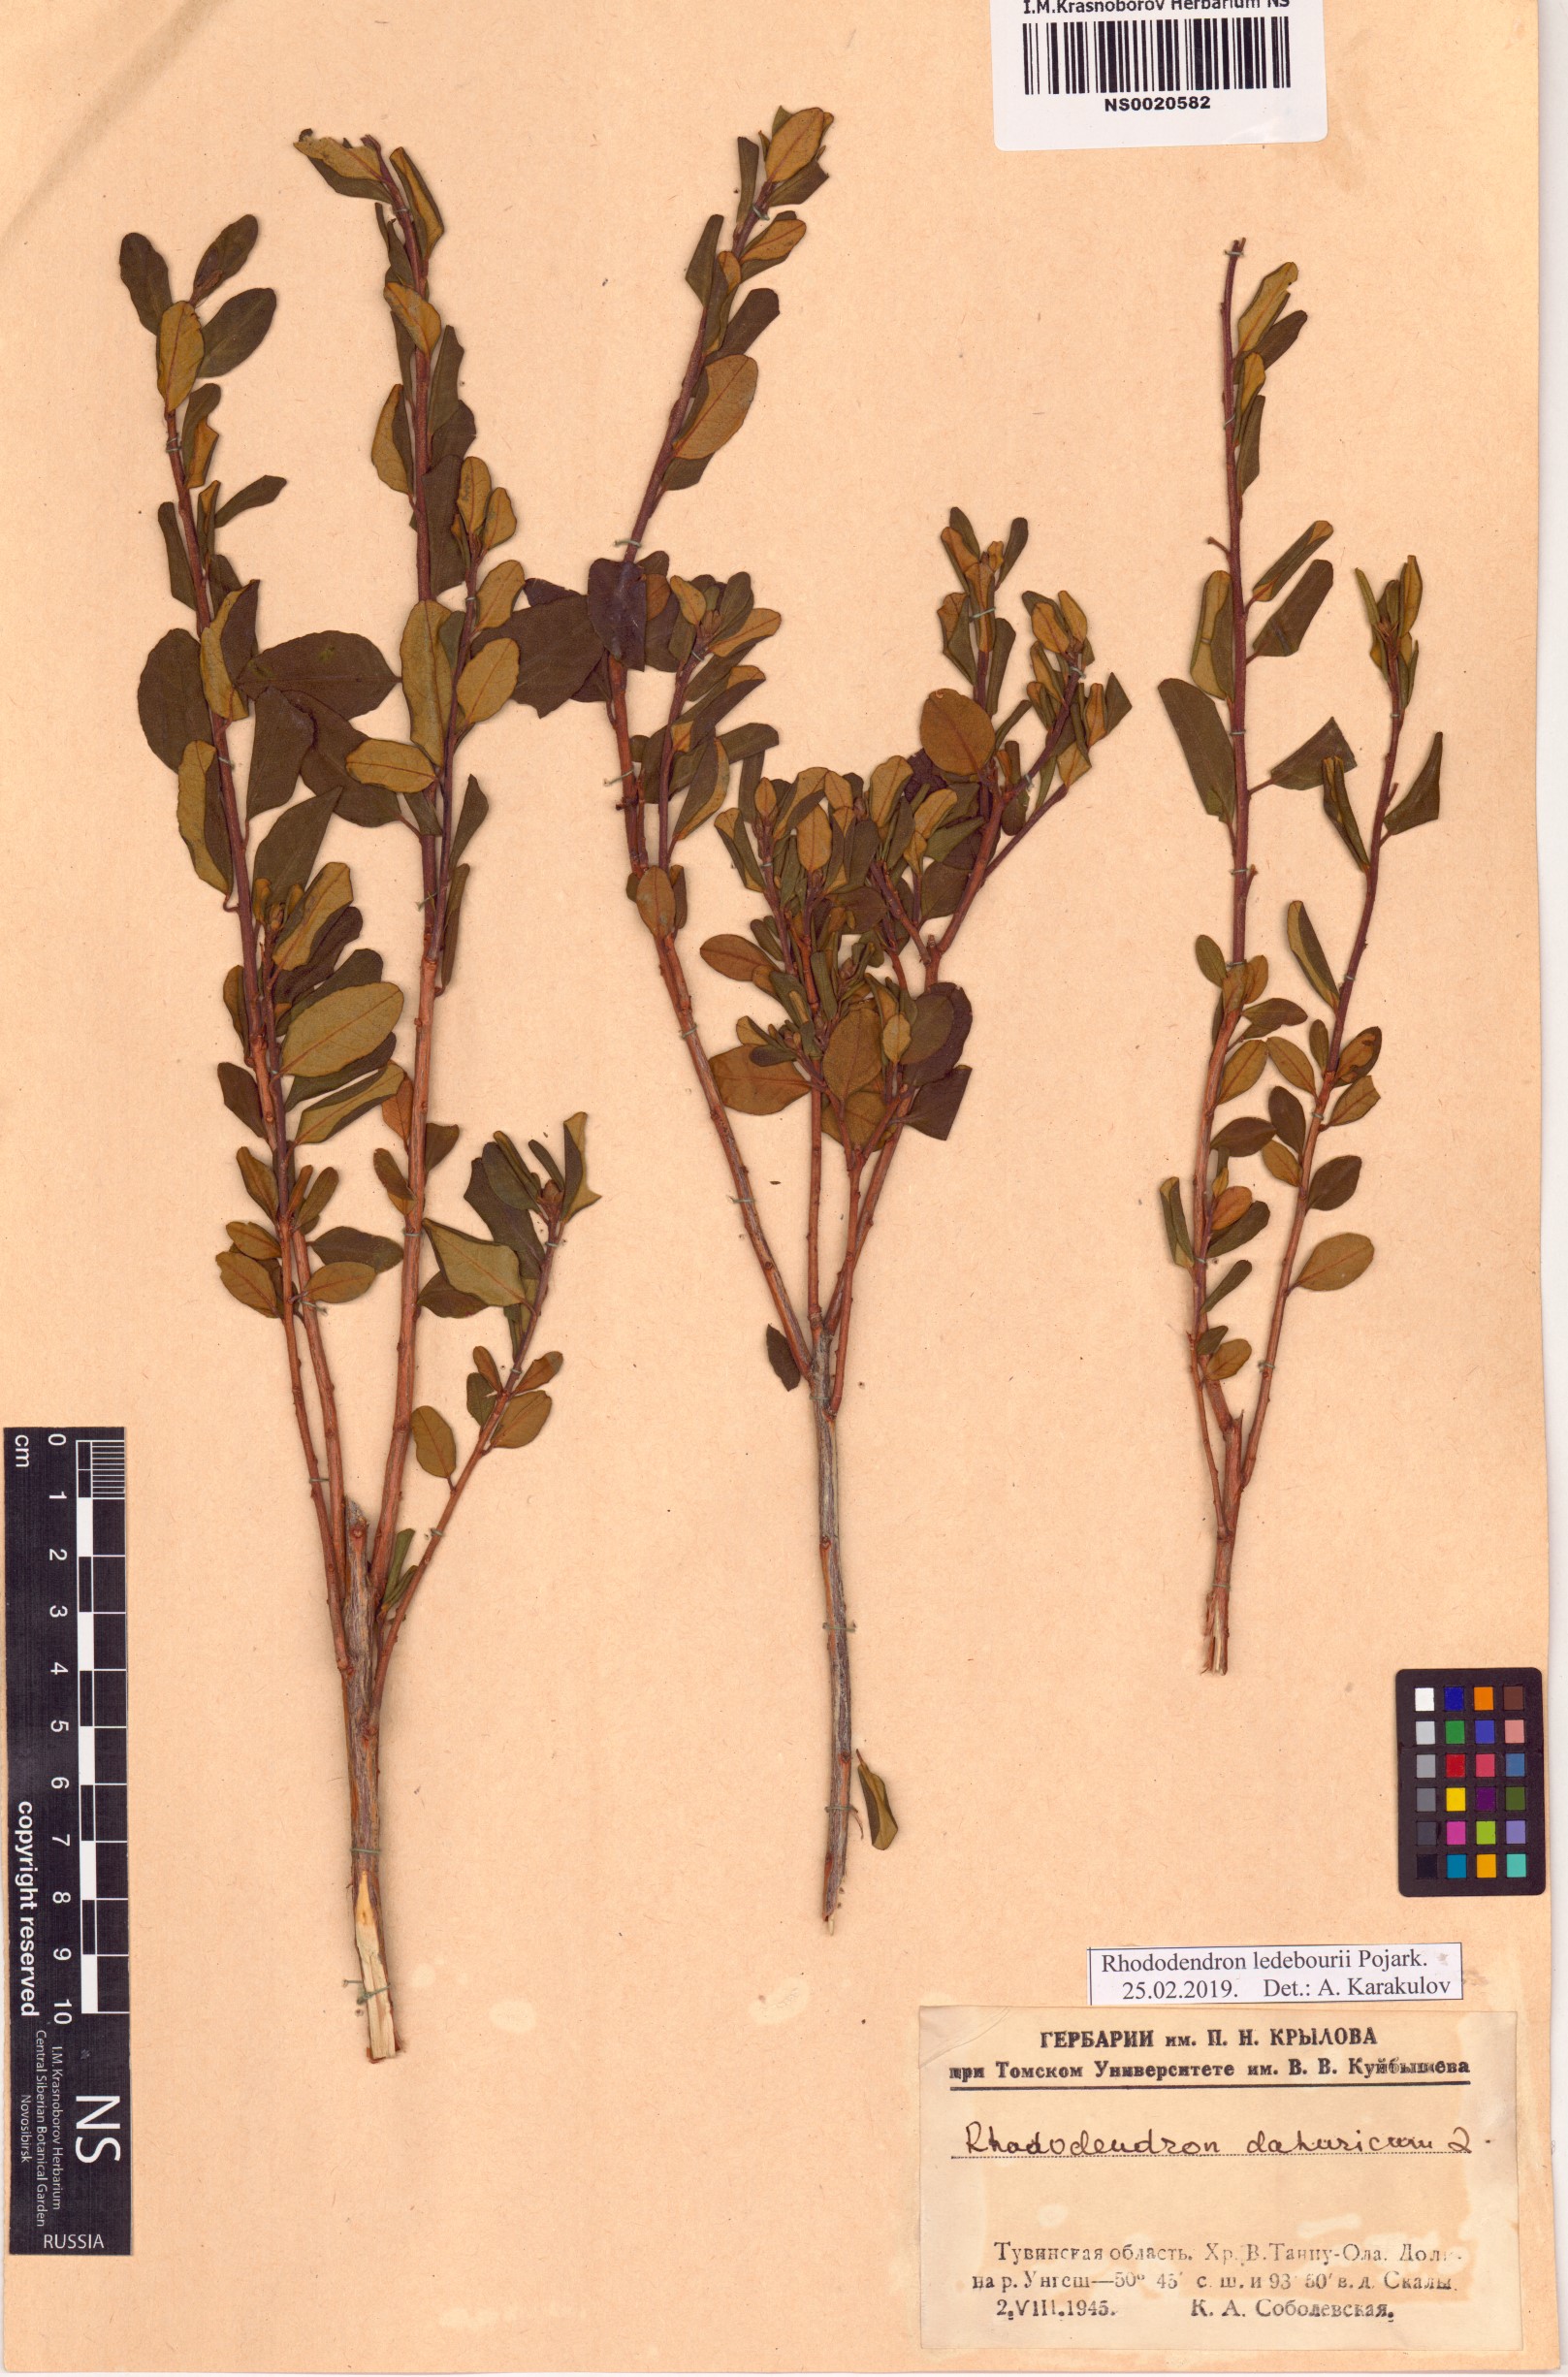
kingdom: Plantae
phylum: Tracheophyta
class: Magnoliopsida
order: Ericales
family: Ericaceae
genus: Rhododendron
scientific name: Rhododendron dauricum
